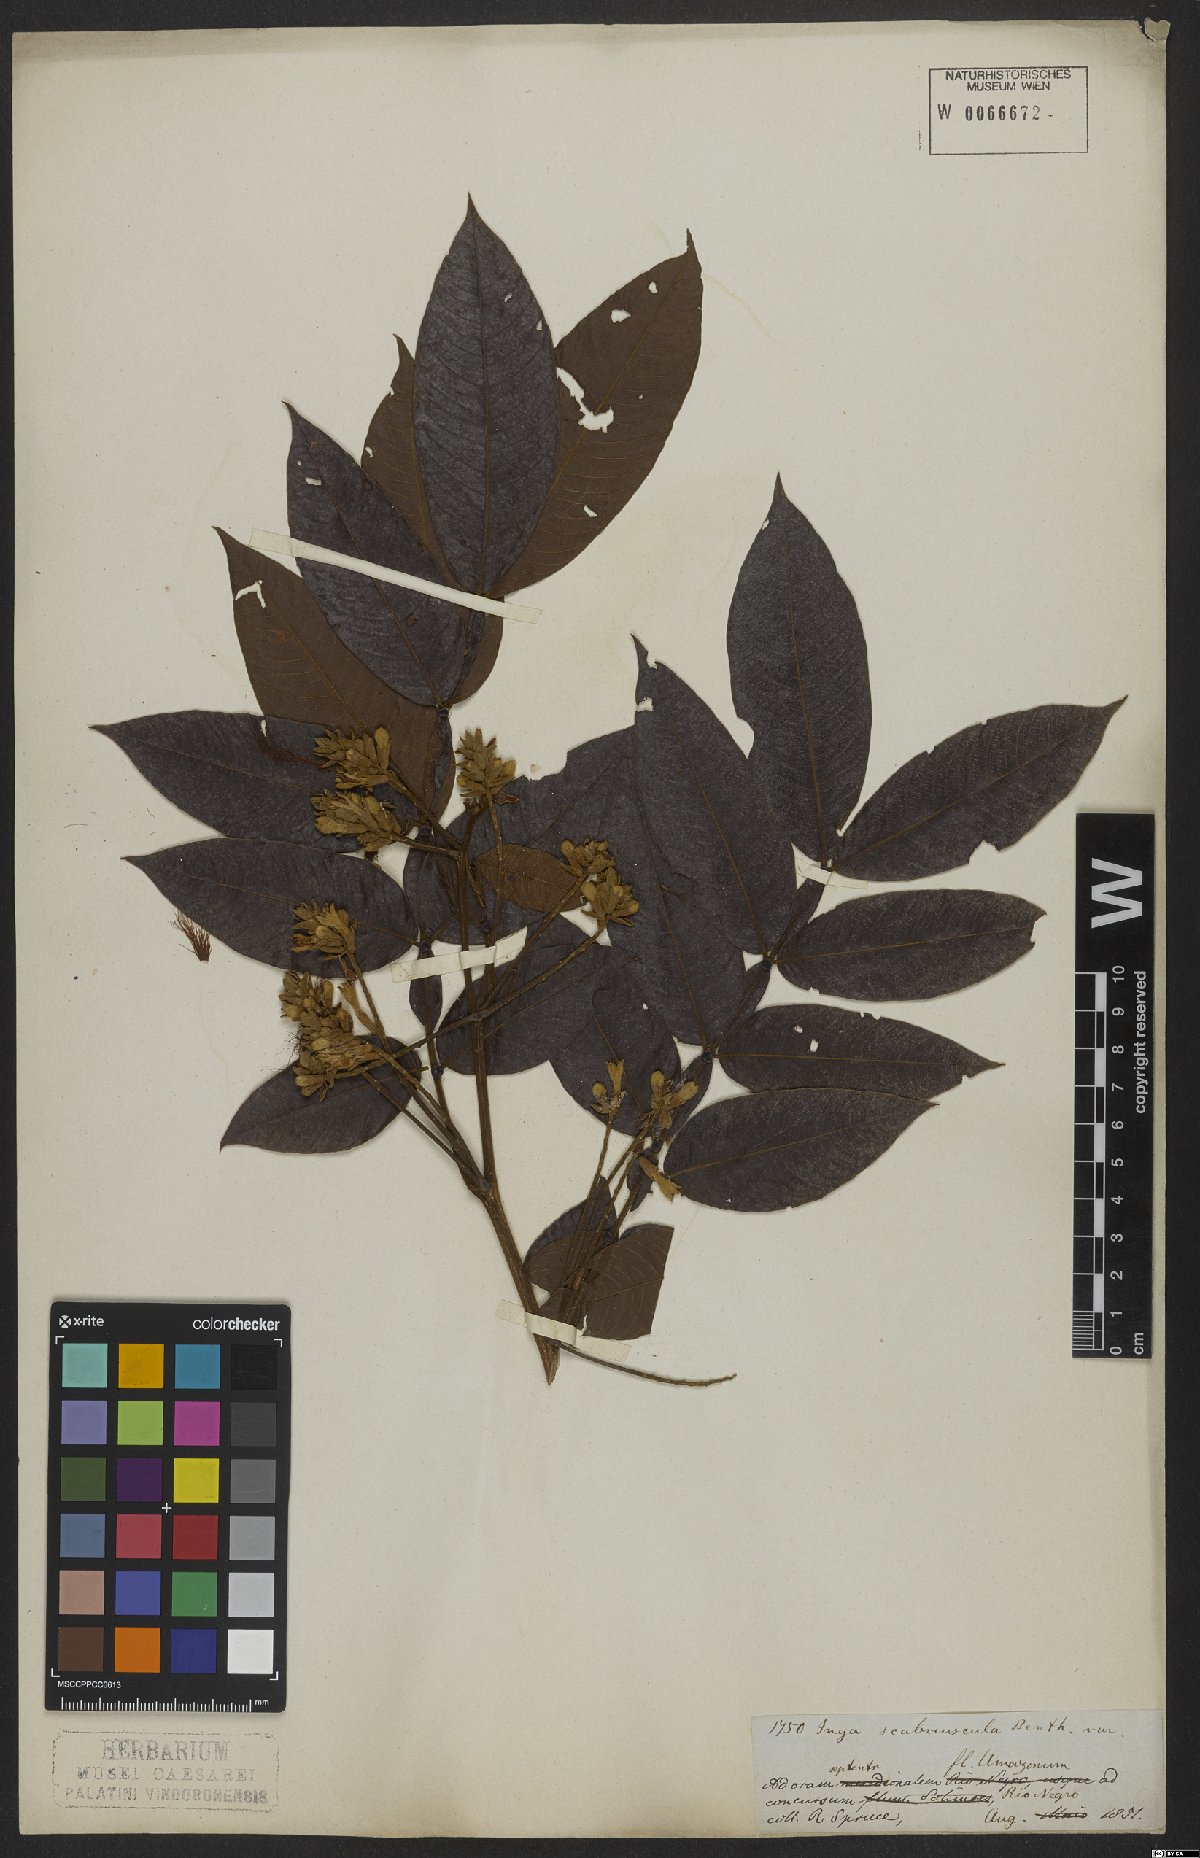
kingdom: Plantae
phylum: Tracheophyta
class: Magnoliopsida
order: Fabales
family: Fabaceae
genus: Inga
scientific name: Inga edulis
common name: Ice cream bean
